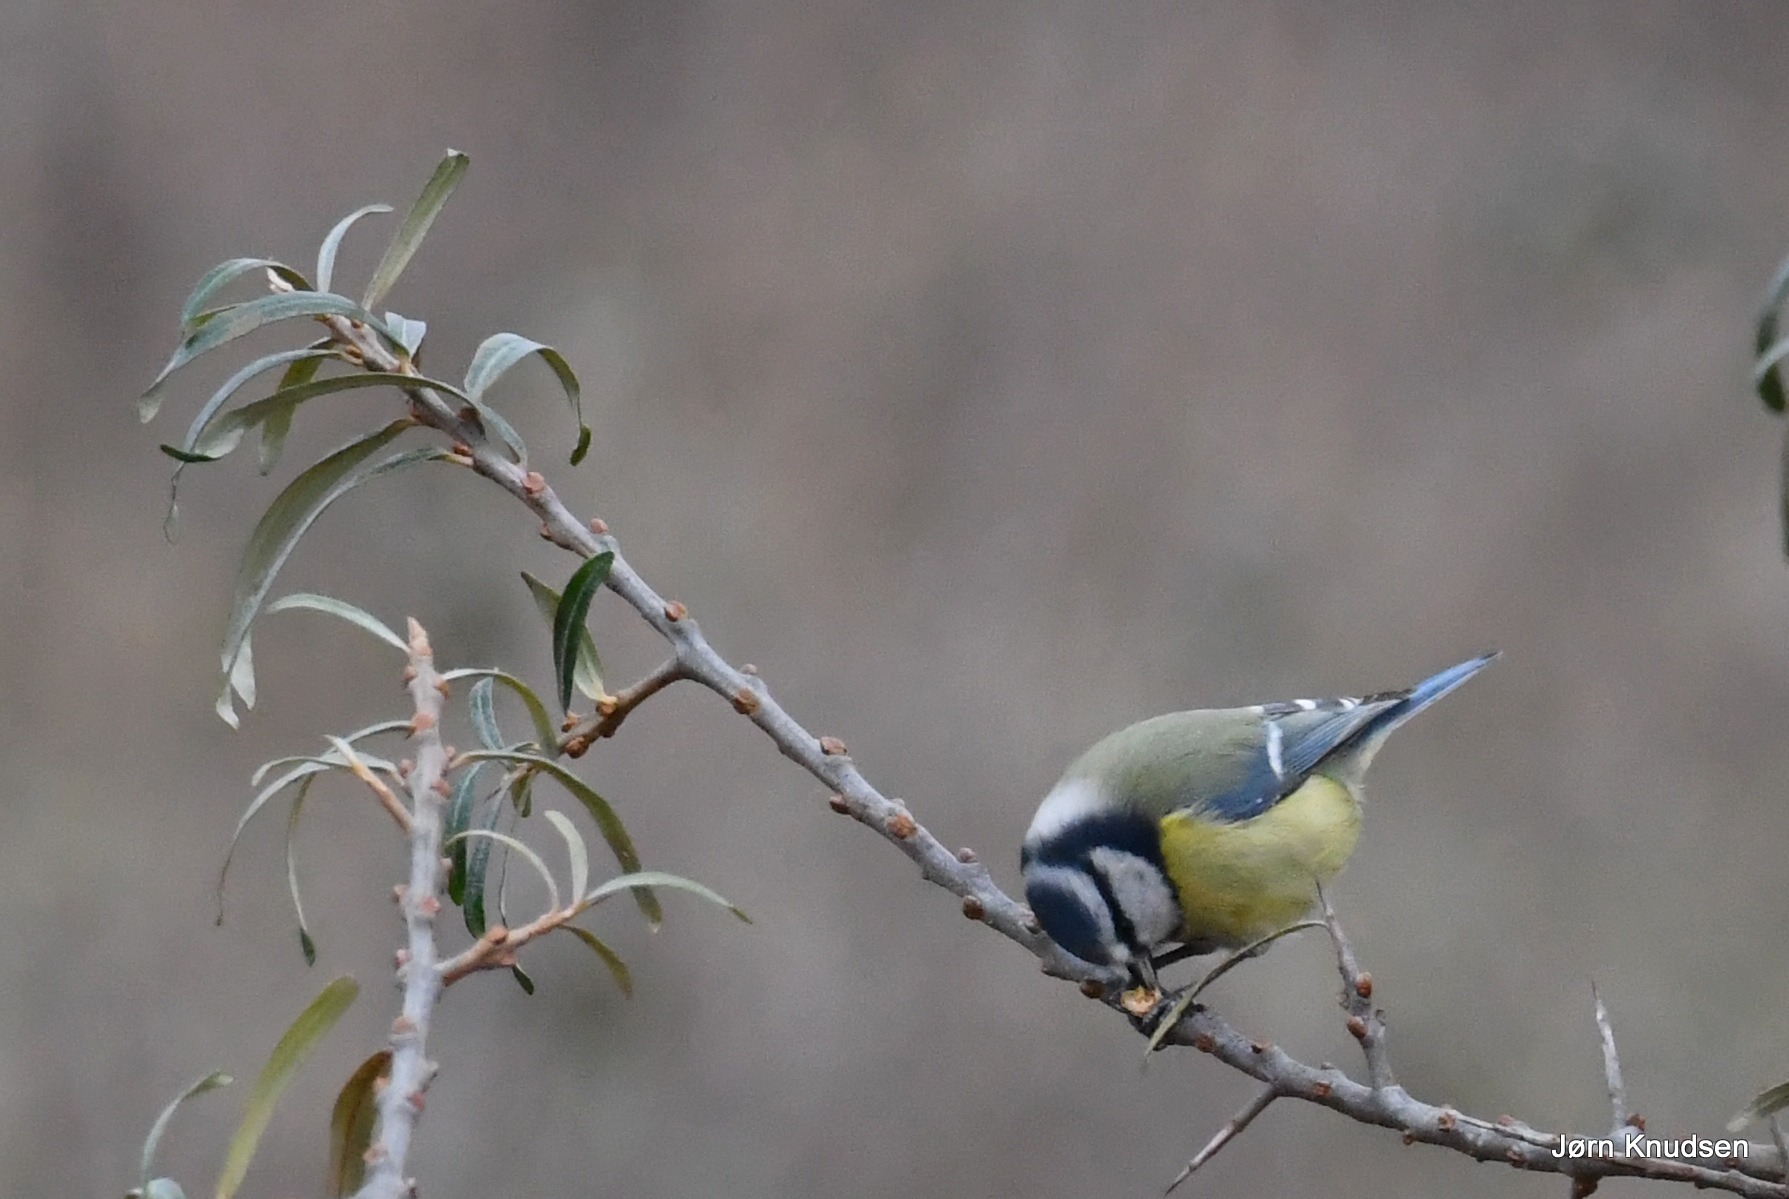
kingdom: Animalia
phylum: Chordata
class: Aves
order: Passeriformes
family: Paridae
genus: Cyanistes
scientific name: Cyanistes caeruleus
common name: Blåmejse
